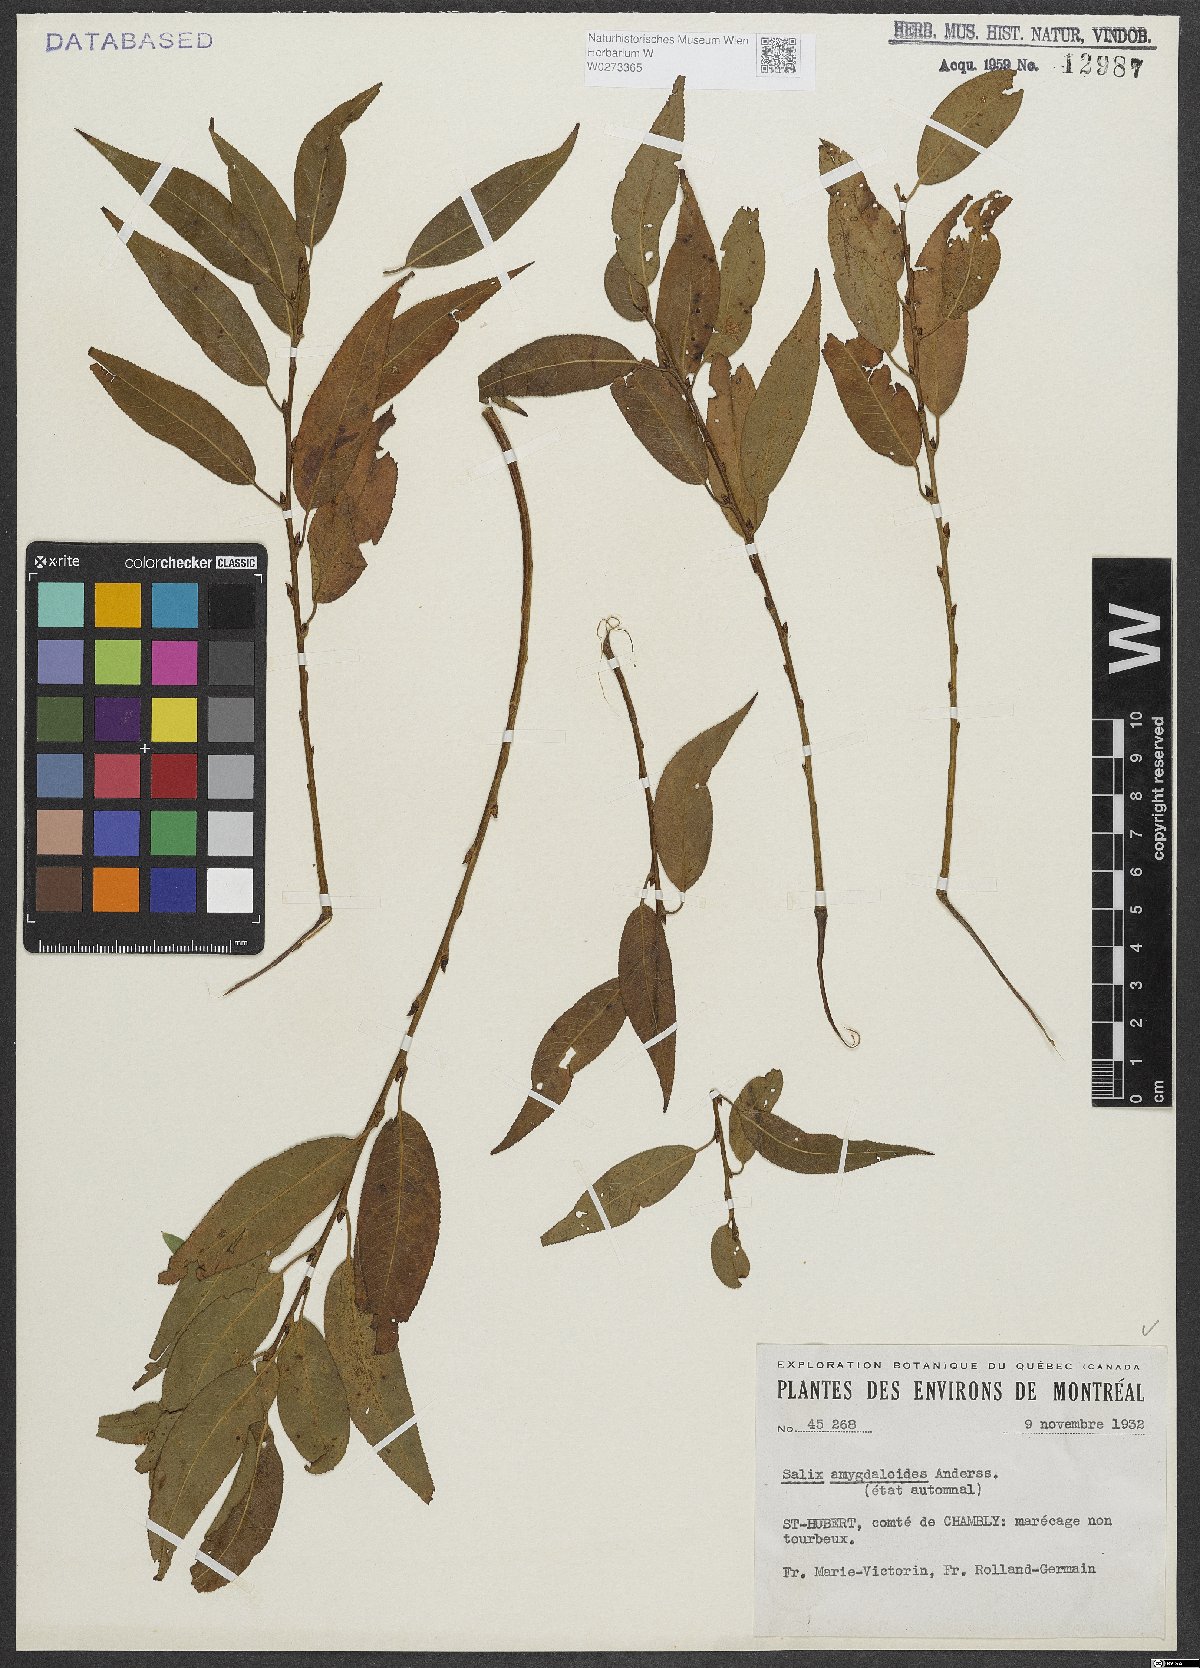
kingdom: Plantae
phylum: Tracheophyta
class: Magnoliopsida
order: Malpighiales
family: Salicaceae
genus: Salix
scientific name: Salix amygdaloides
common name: Peach leaf willow
